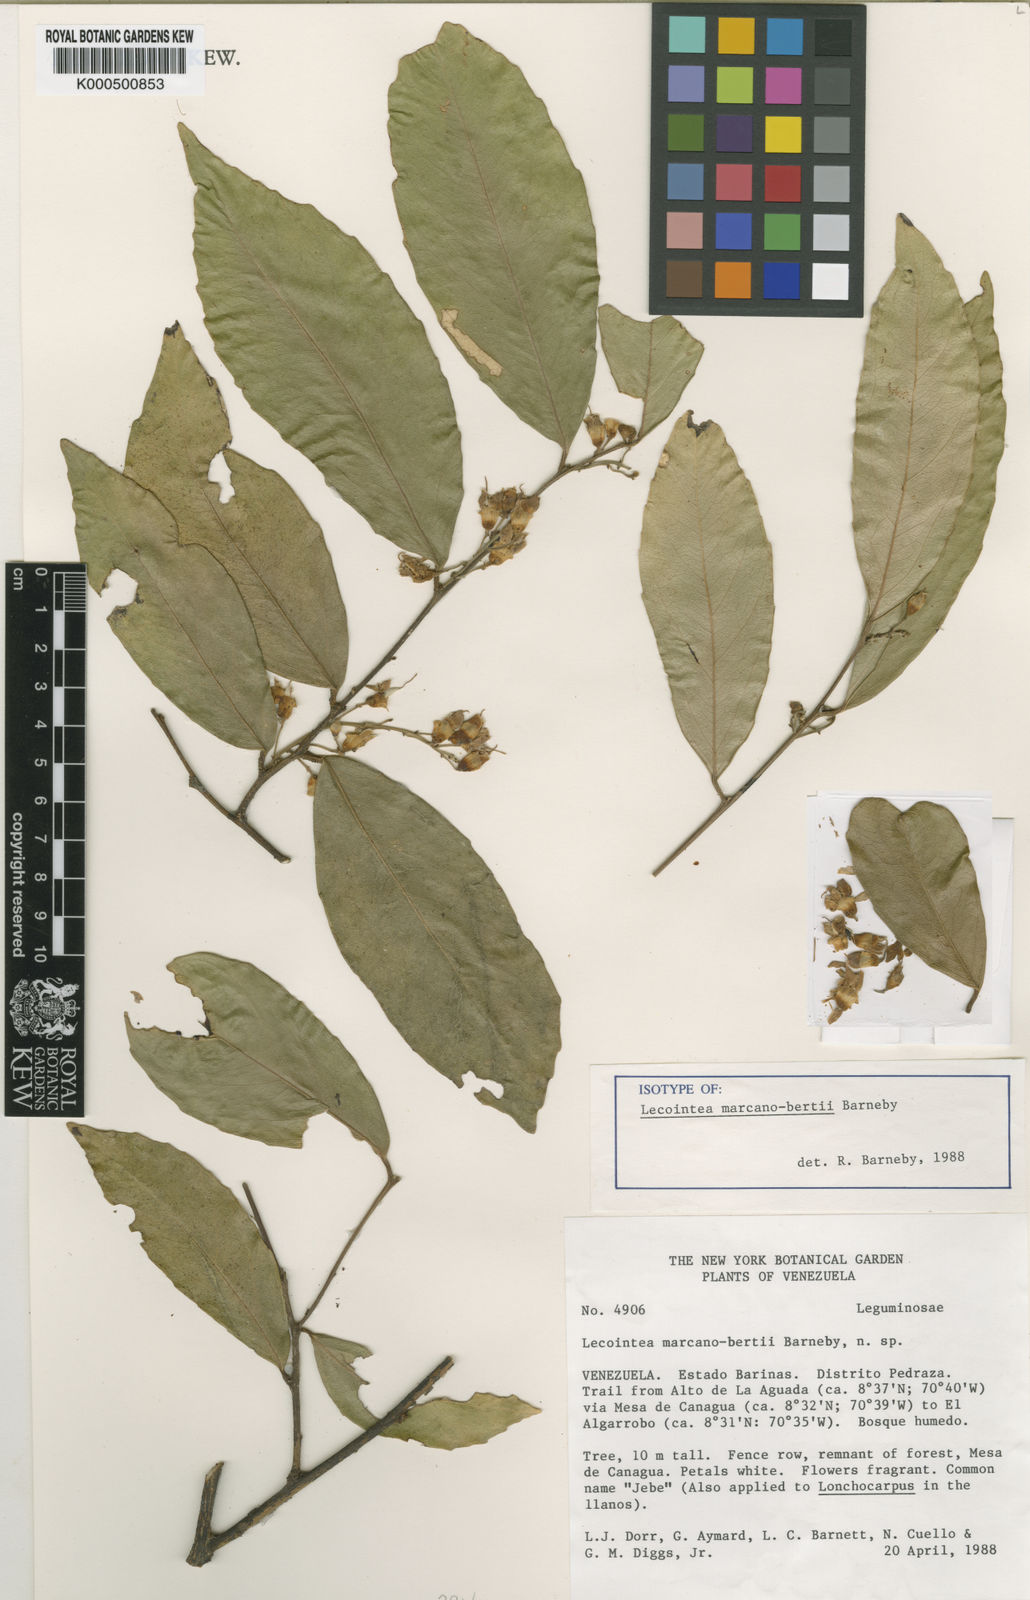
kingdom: Plantae
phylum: Tracheophyta
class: Magnoliopsida
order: Fabales
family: Fabaceae
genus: Lecointea
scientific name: Lecointea marcano-bertii
